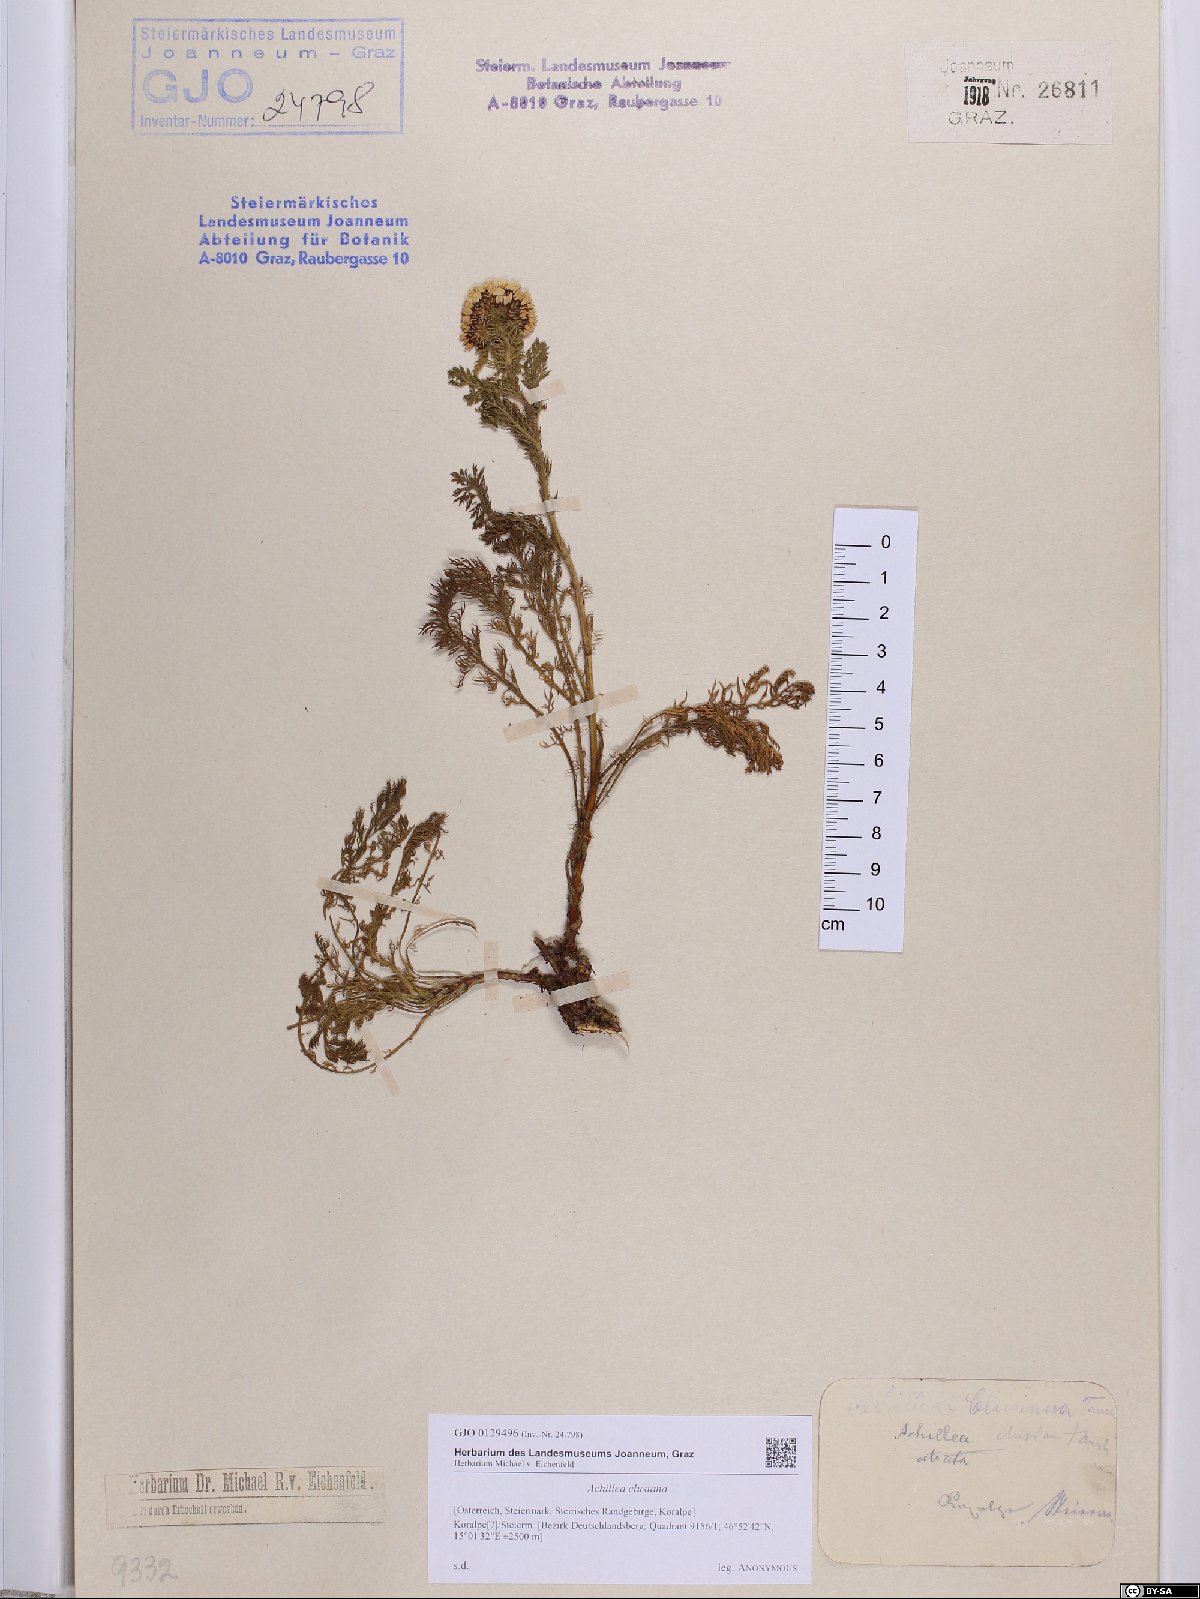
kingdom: Plantae
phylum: Tracheophyta
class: Magnoliopsida
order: Asterales
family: Asteraceae
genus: Achillea
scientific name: Achillea clusiana
